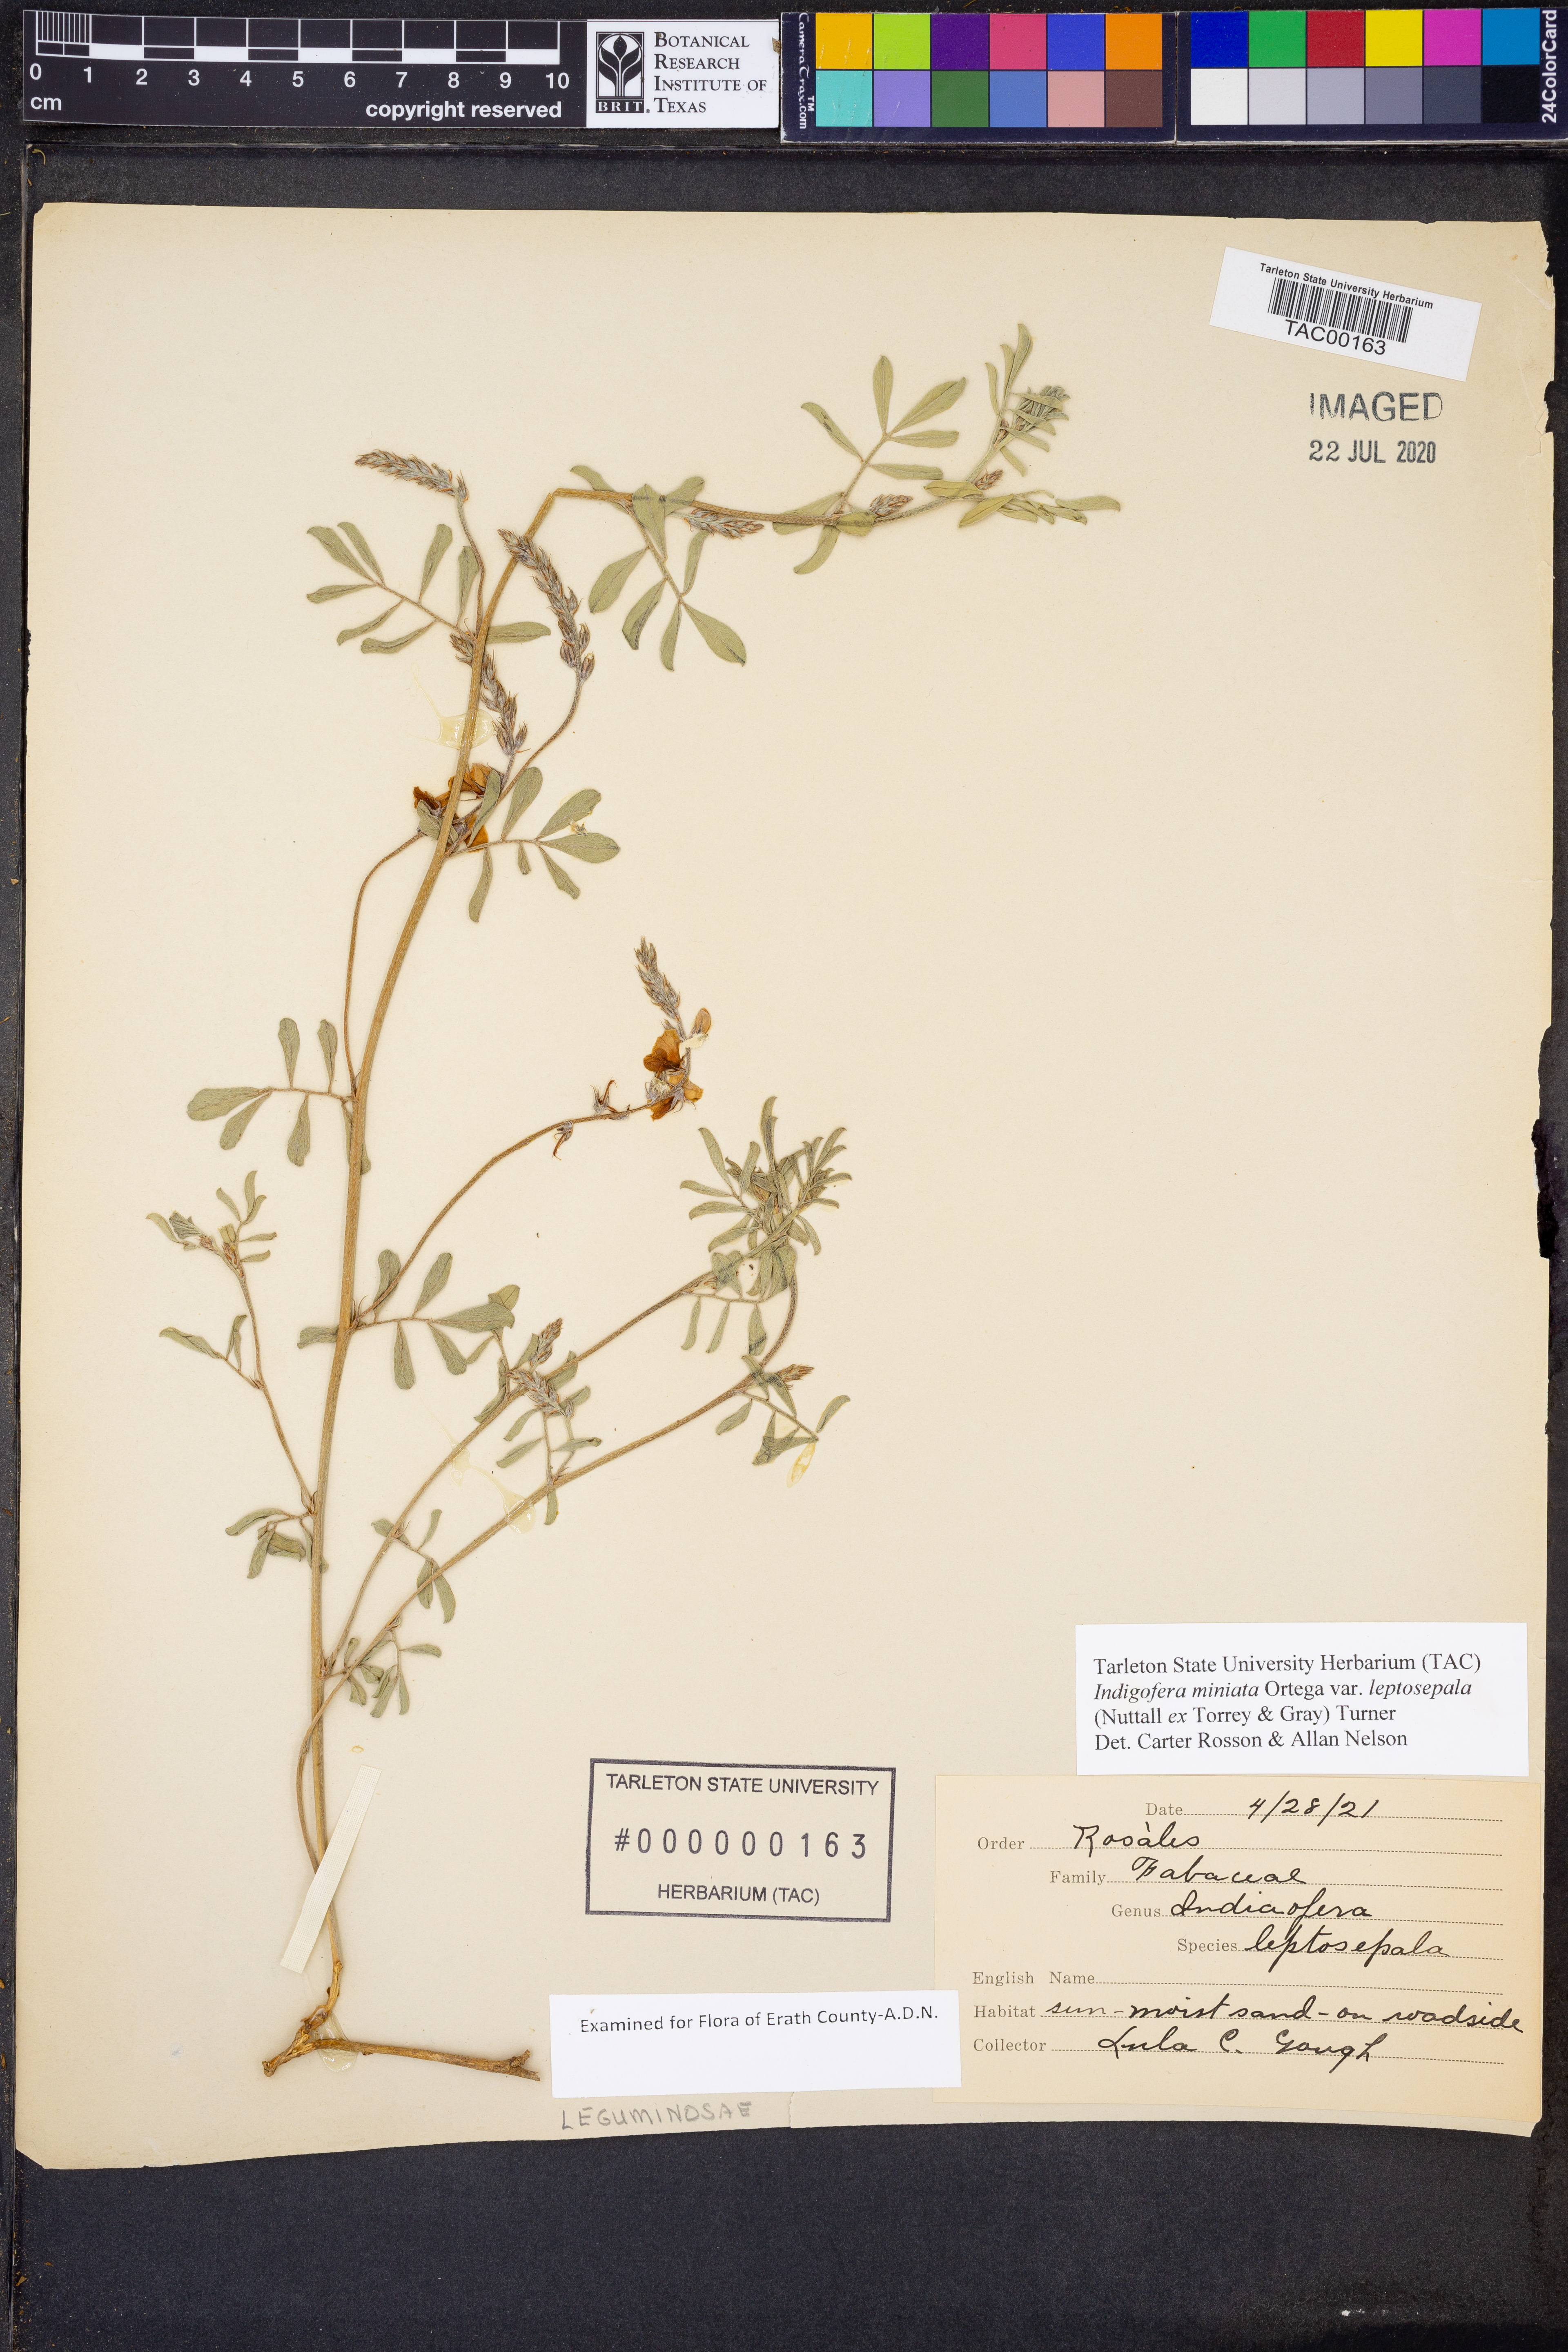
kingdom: Plantae
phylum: Tracheophyta
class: Magnoliopsida
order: Fabales
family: Fabaceae
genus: Indigofera
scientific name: Indigofera miniata
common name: Coast indigo
